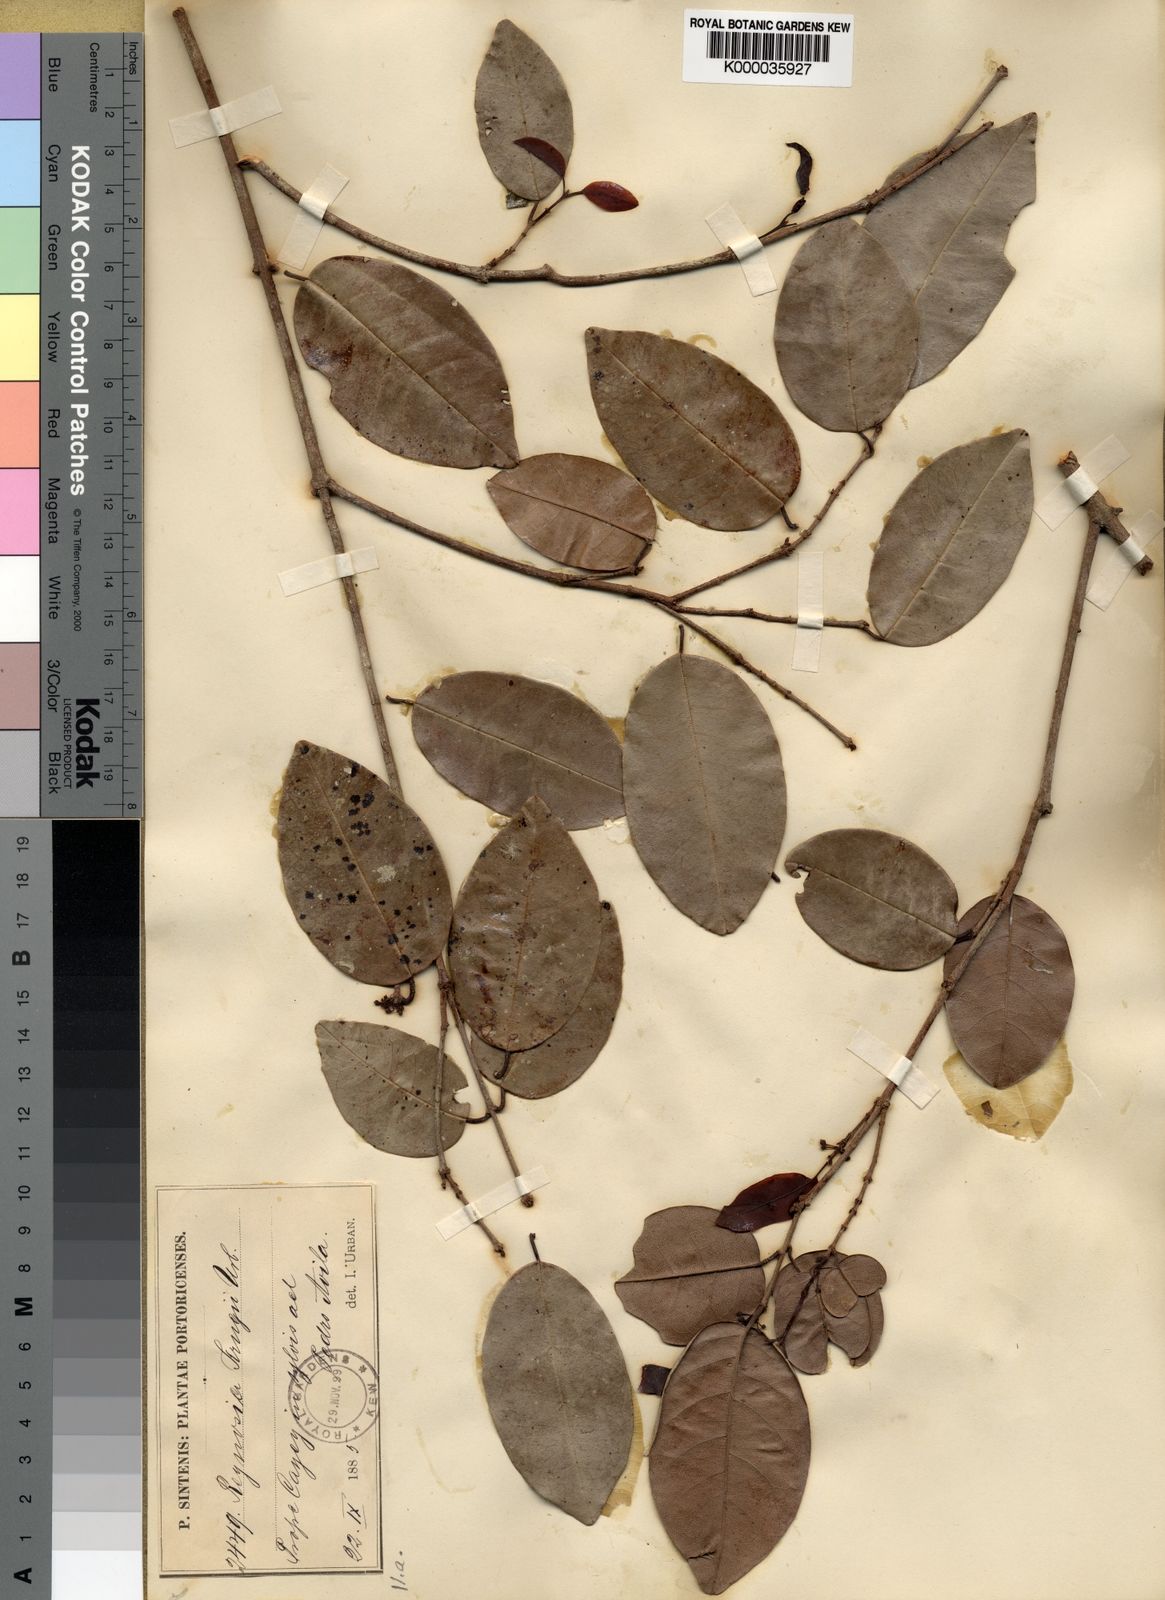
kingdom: Plantae
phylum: Tracheophyta
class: Magnoliopsida
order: Rosales
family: Rhamnaceae
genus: Reynosia
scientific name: Reynosia krugii
